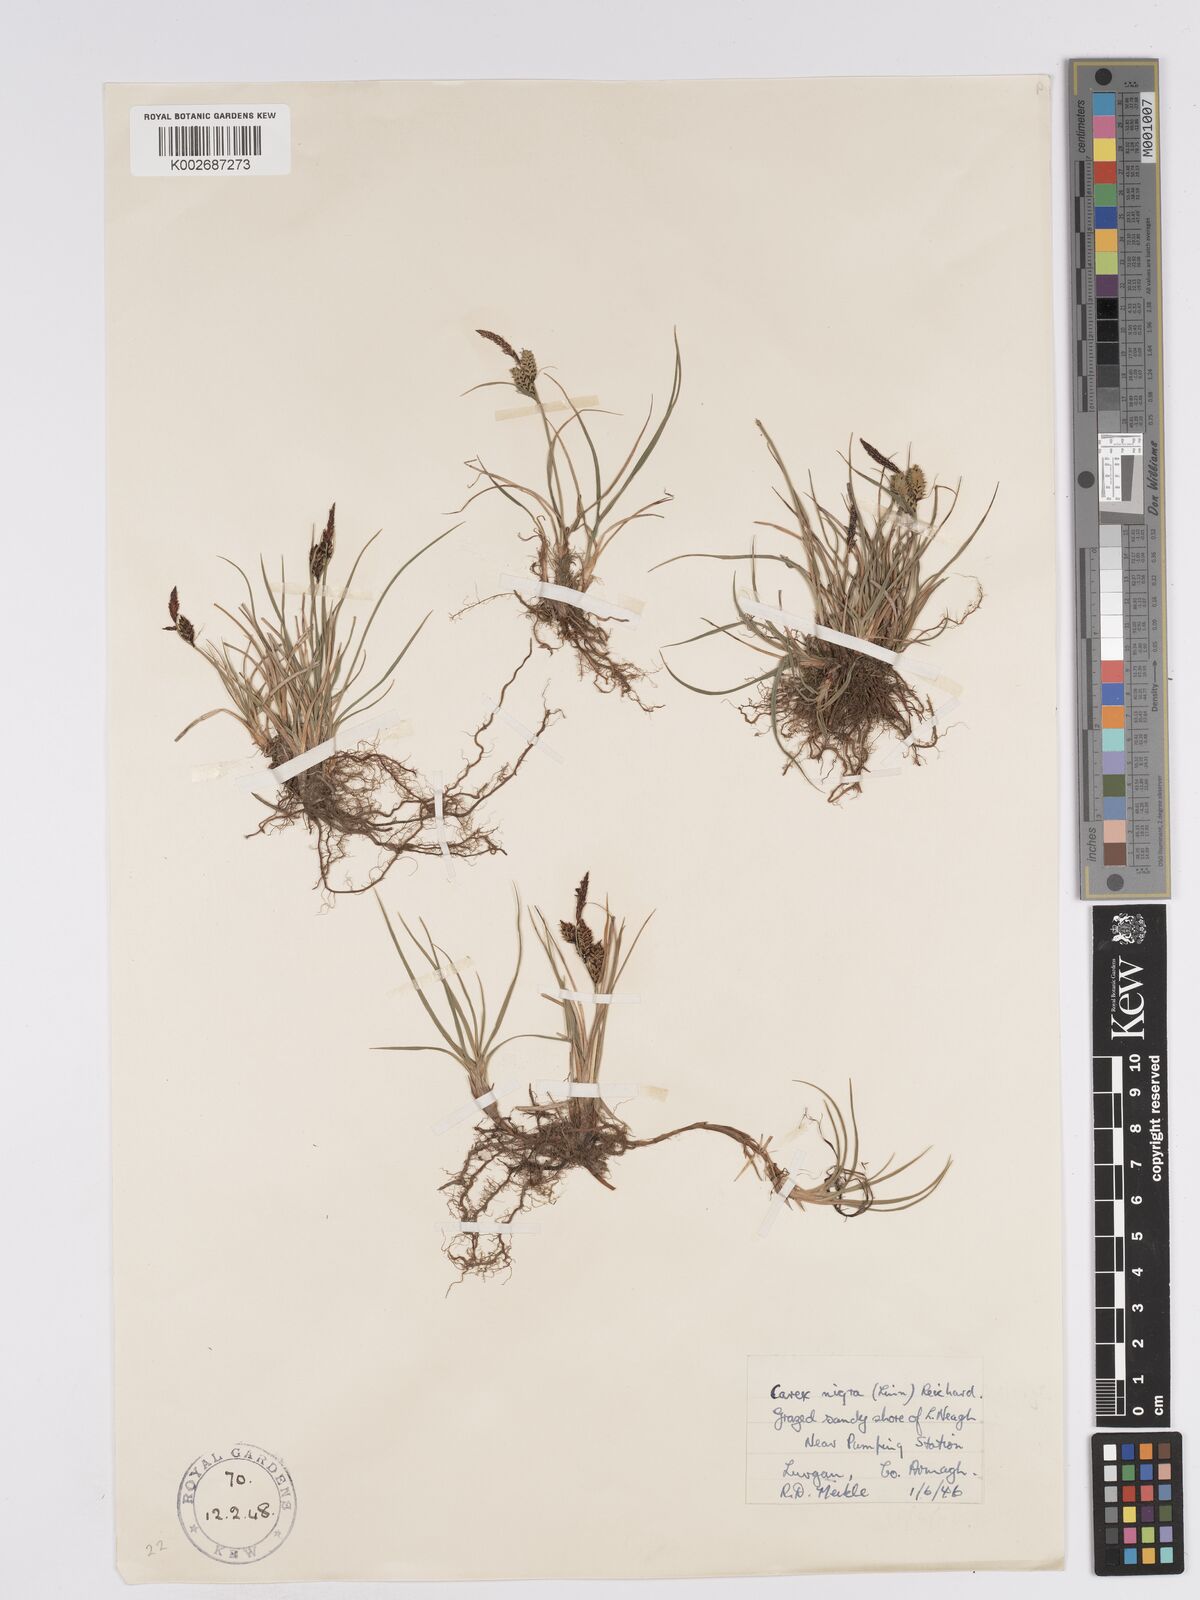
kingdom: Plantae
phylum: Tracheophyta
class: Liliopsida
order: Poales
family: Cyperaceae
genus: Carex
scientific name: Carex nigra
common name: Common sedge
